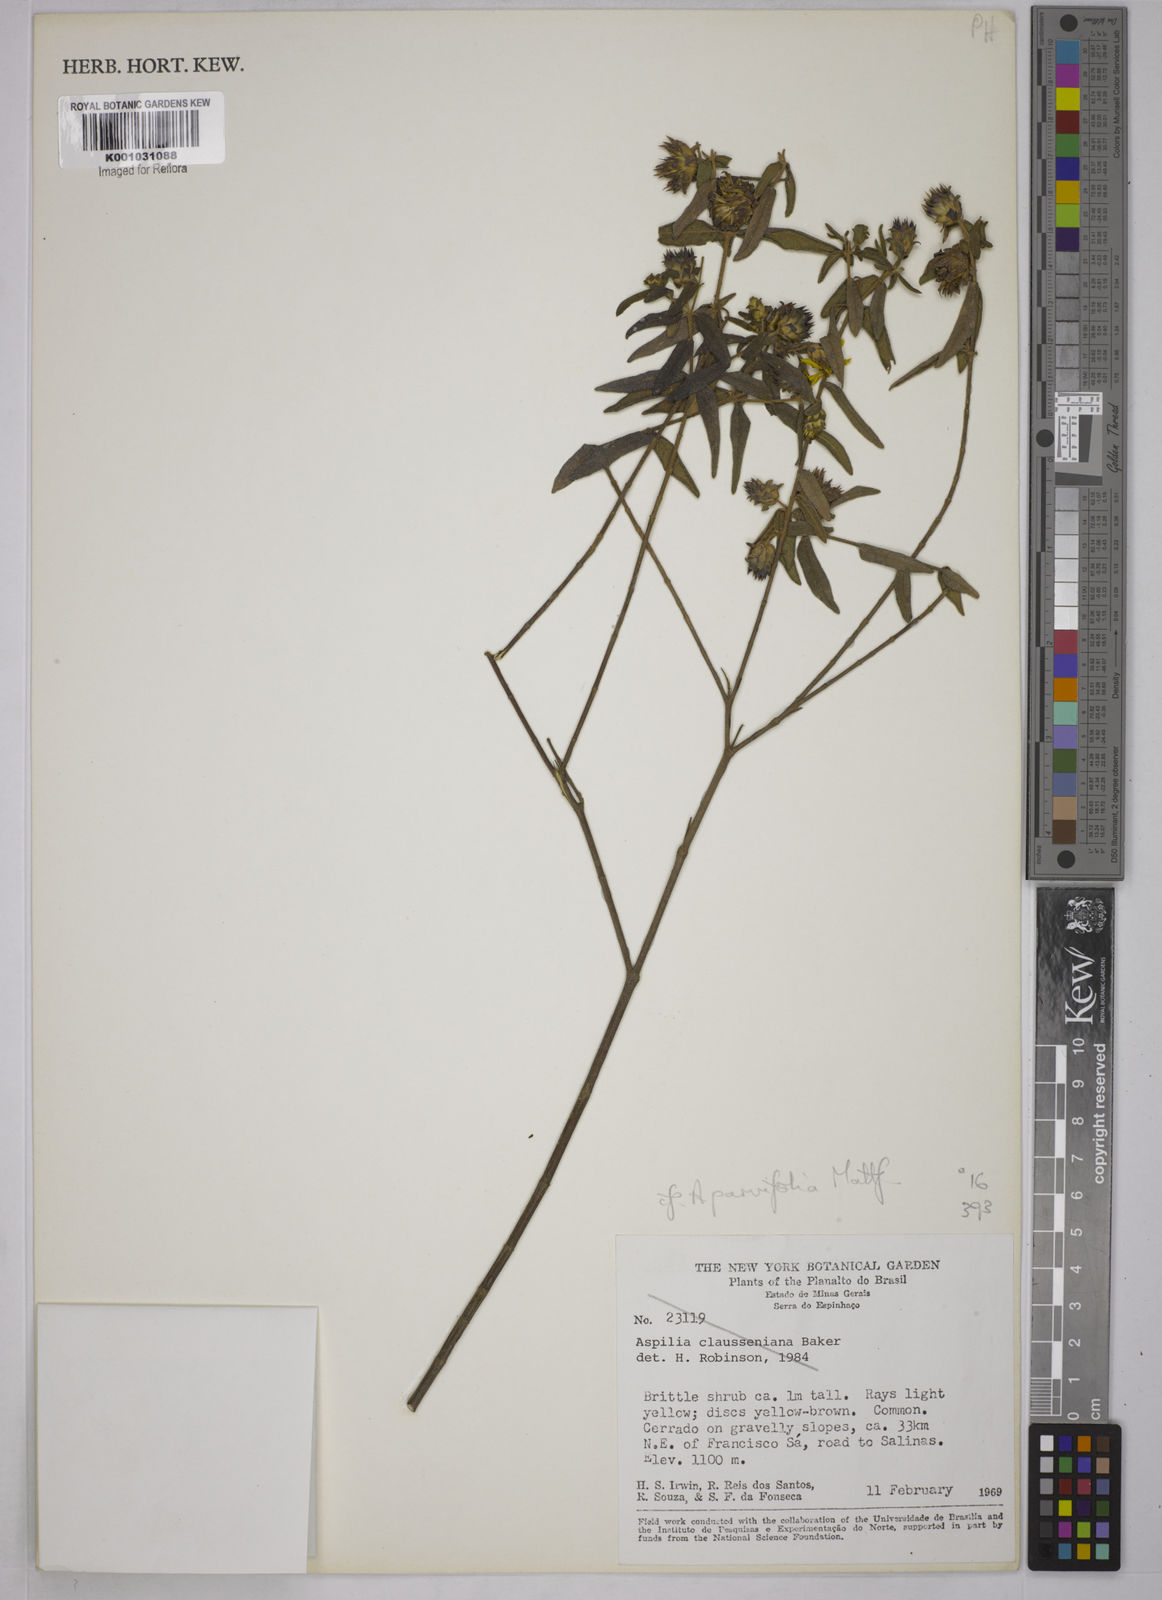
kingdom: Plantae
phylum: Tracheophyta
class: Magnoliopsida
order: Asterales
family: Asteraceae
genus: Aspilia
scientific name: Aspilia foliosa
